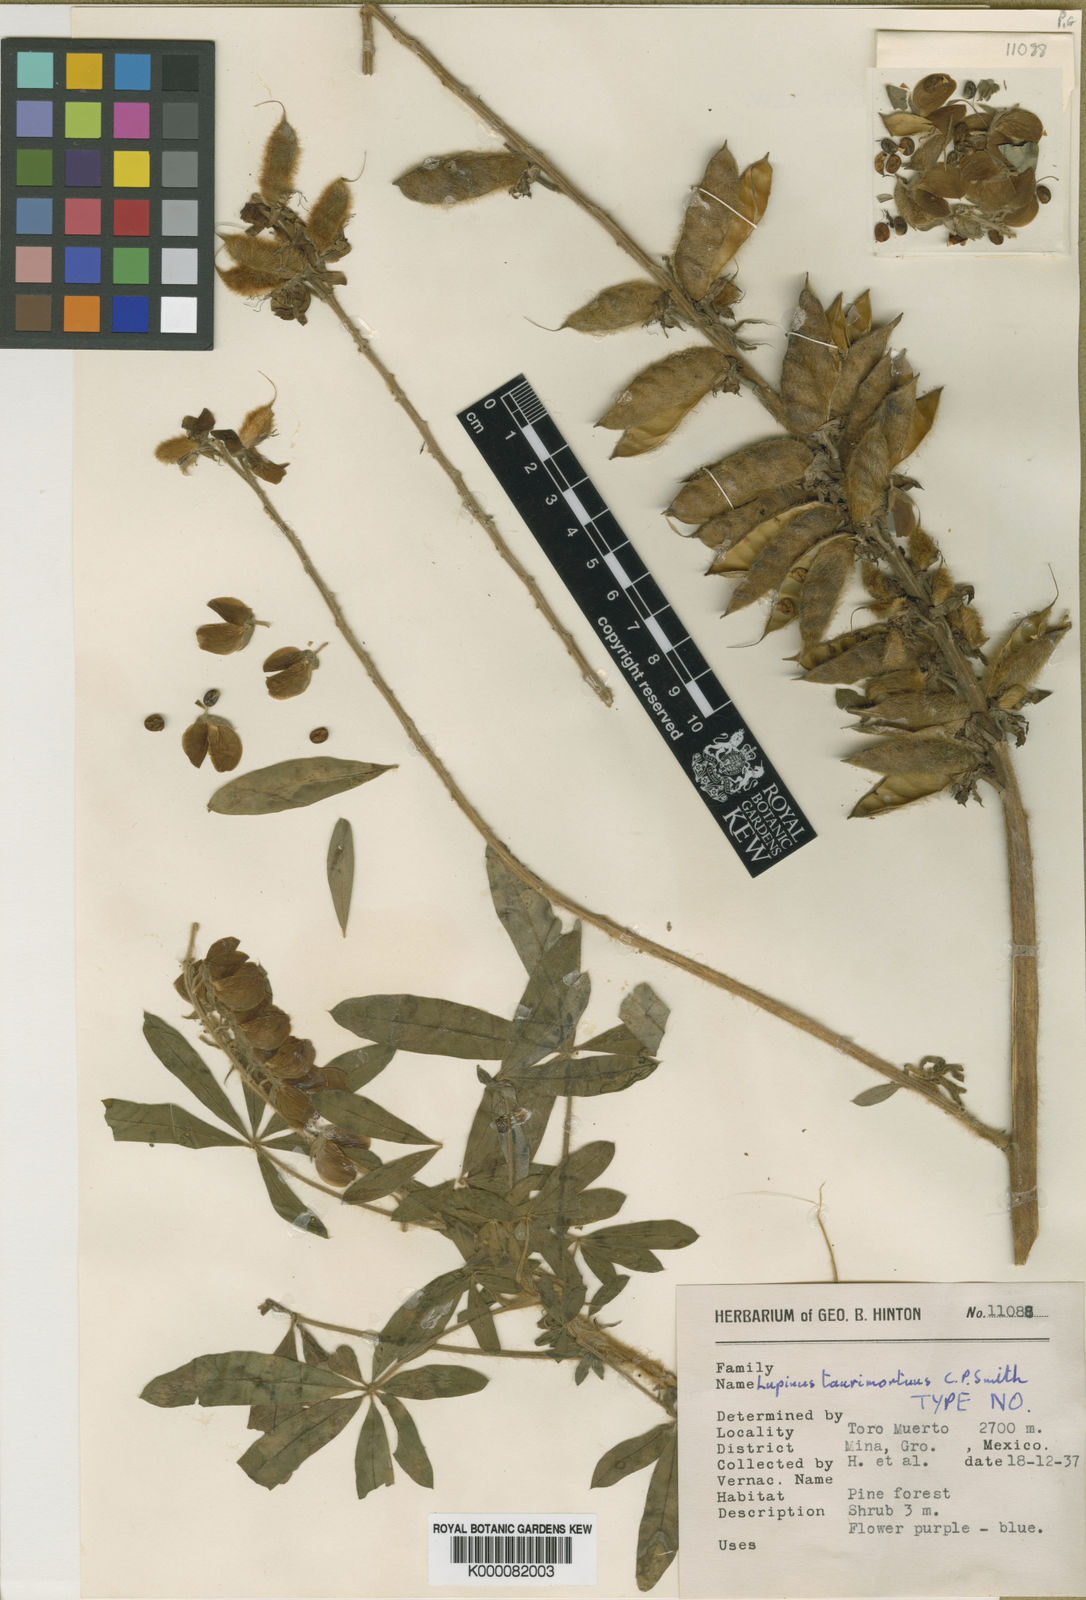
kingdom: Plantae
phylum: Tracheophyta
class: Magnoliopsida
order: Fabales
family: Fabaceae
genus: Lupinus
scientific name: Lupinus taurimortuus
